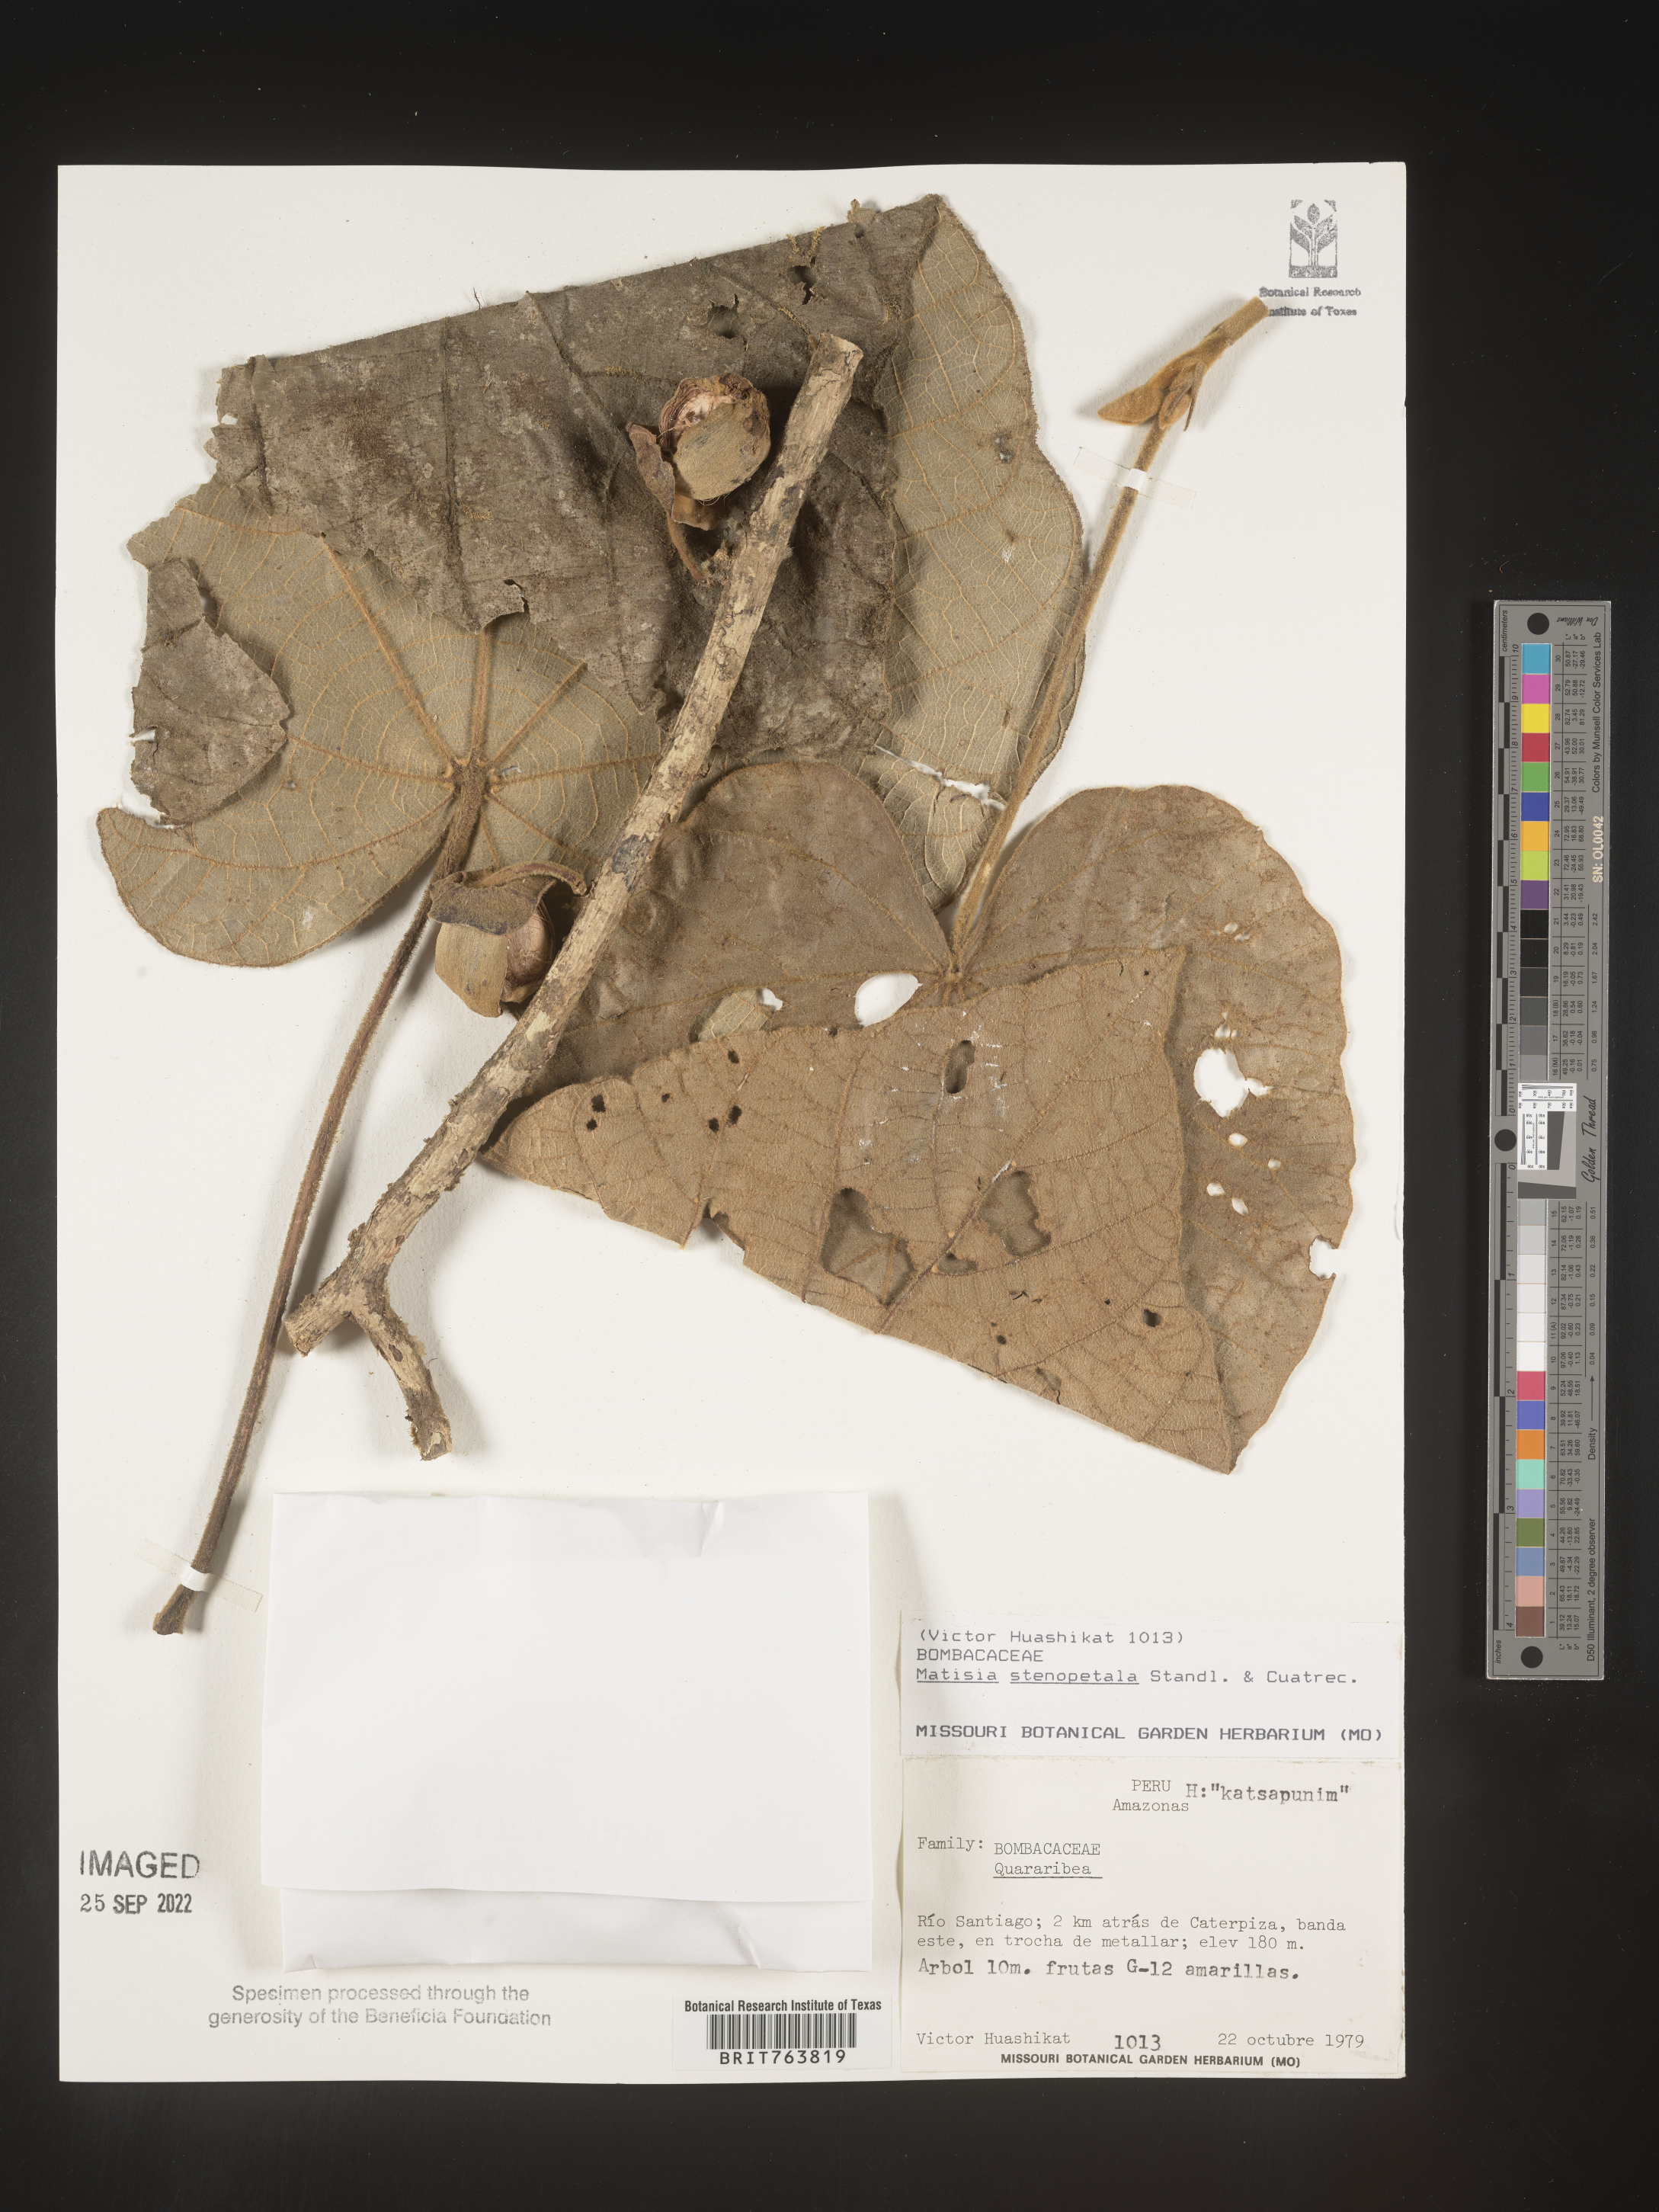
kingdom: Plantae
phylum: Tracheophyta
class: Magnoliopsida
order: Malvales
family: Malvaceae
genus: Matisia
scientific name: Matisia
